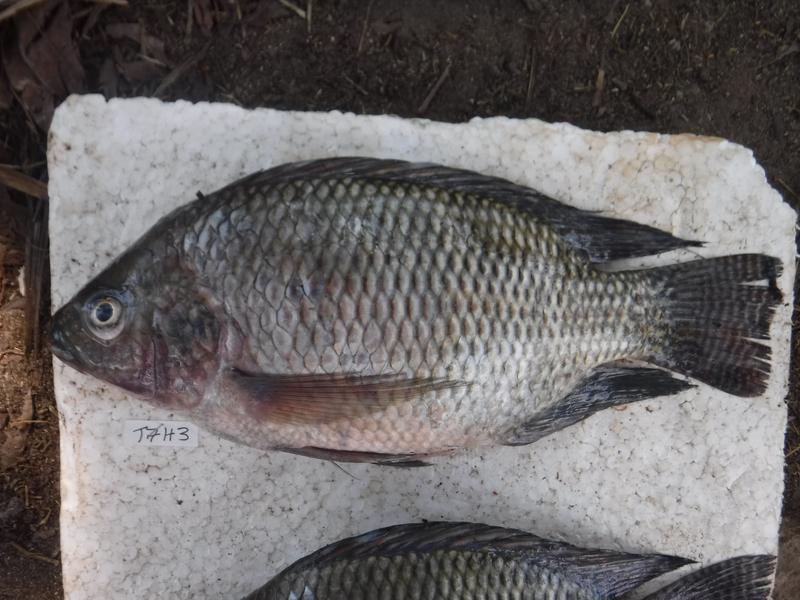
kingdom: Animalia
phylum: Chordata
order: Perciformes
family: Cichlidae
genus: Oreochromis
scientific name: Oreochromis niloticus
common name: Nile tilapia
